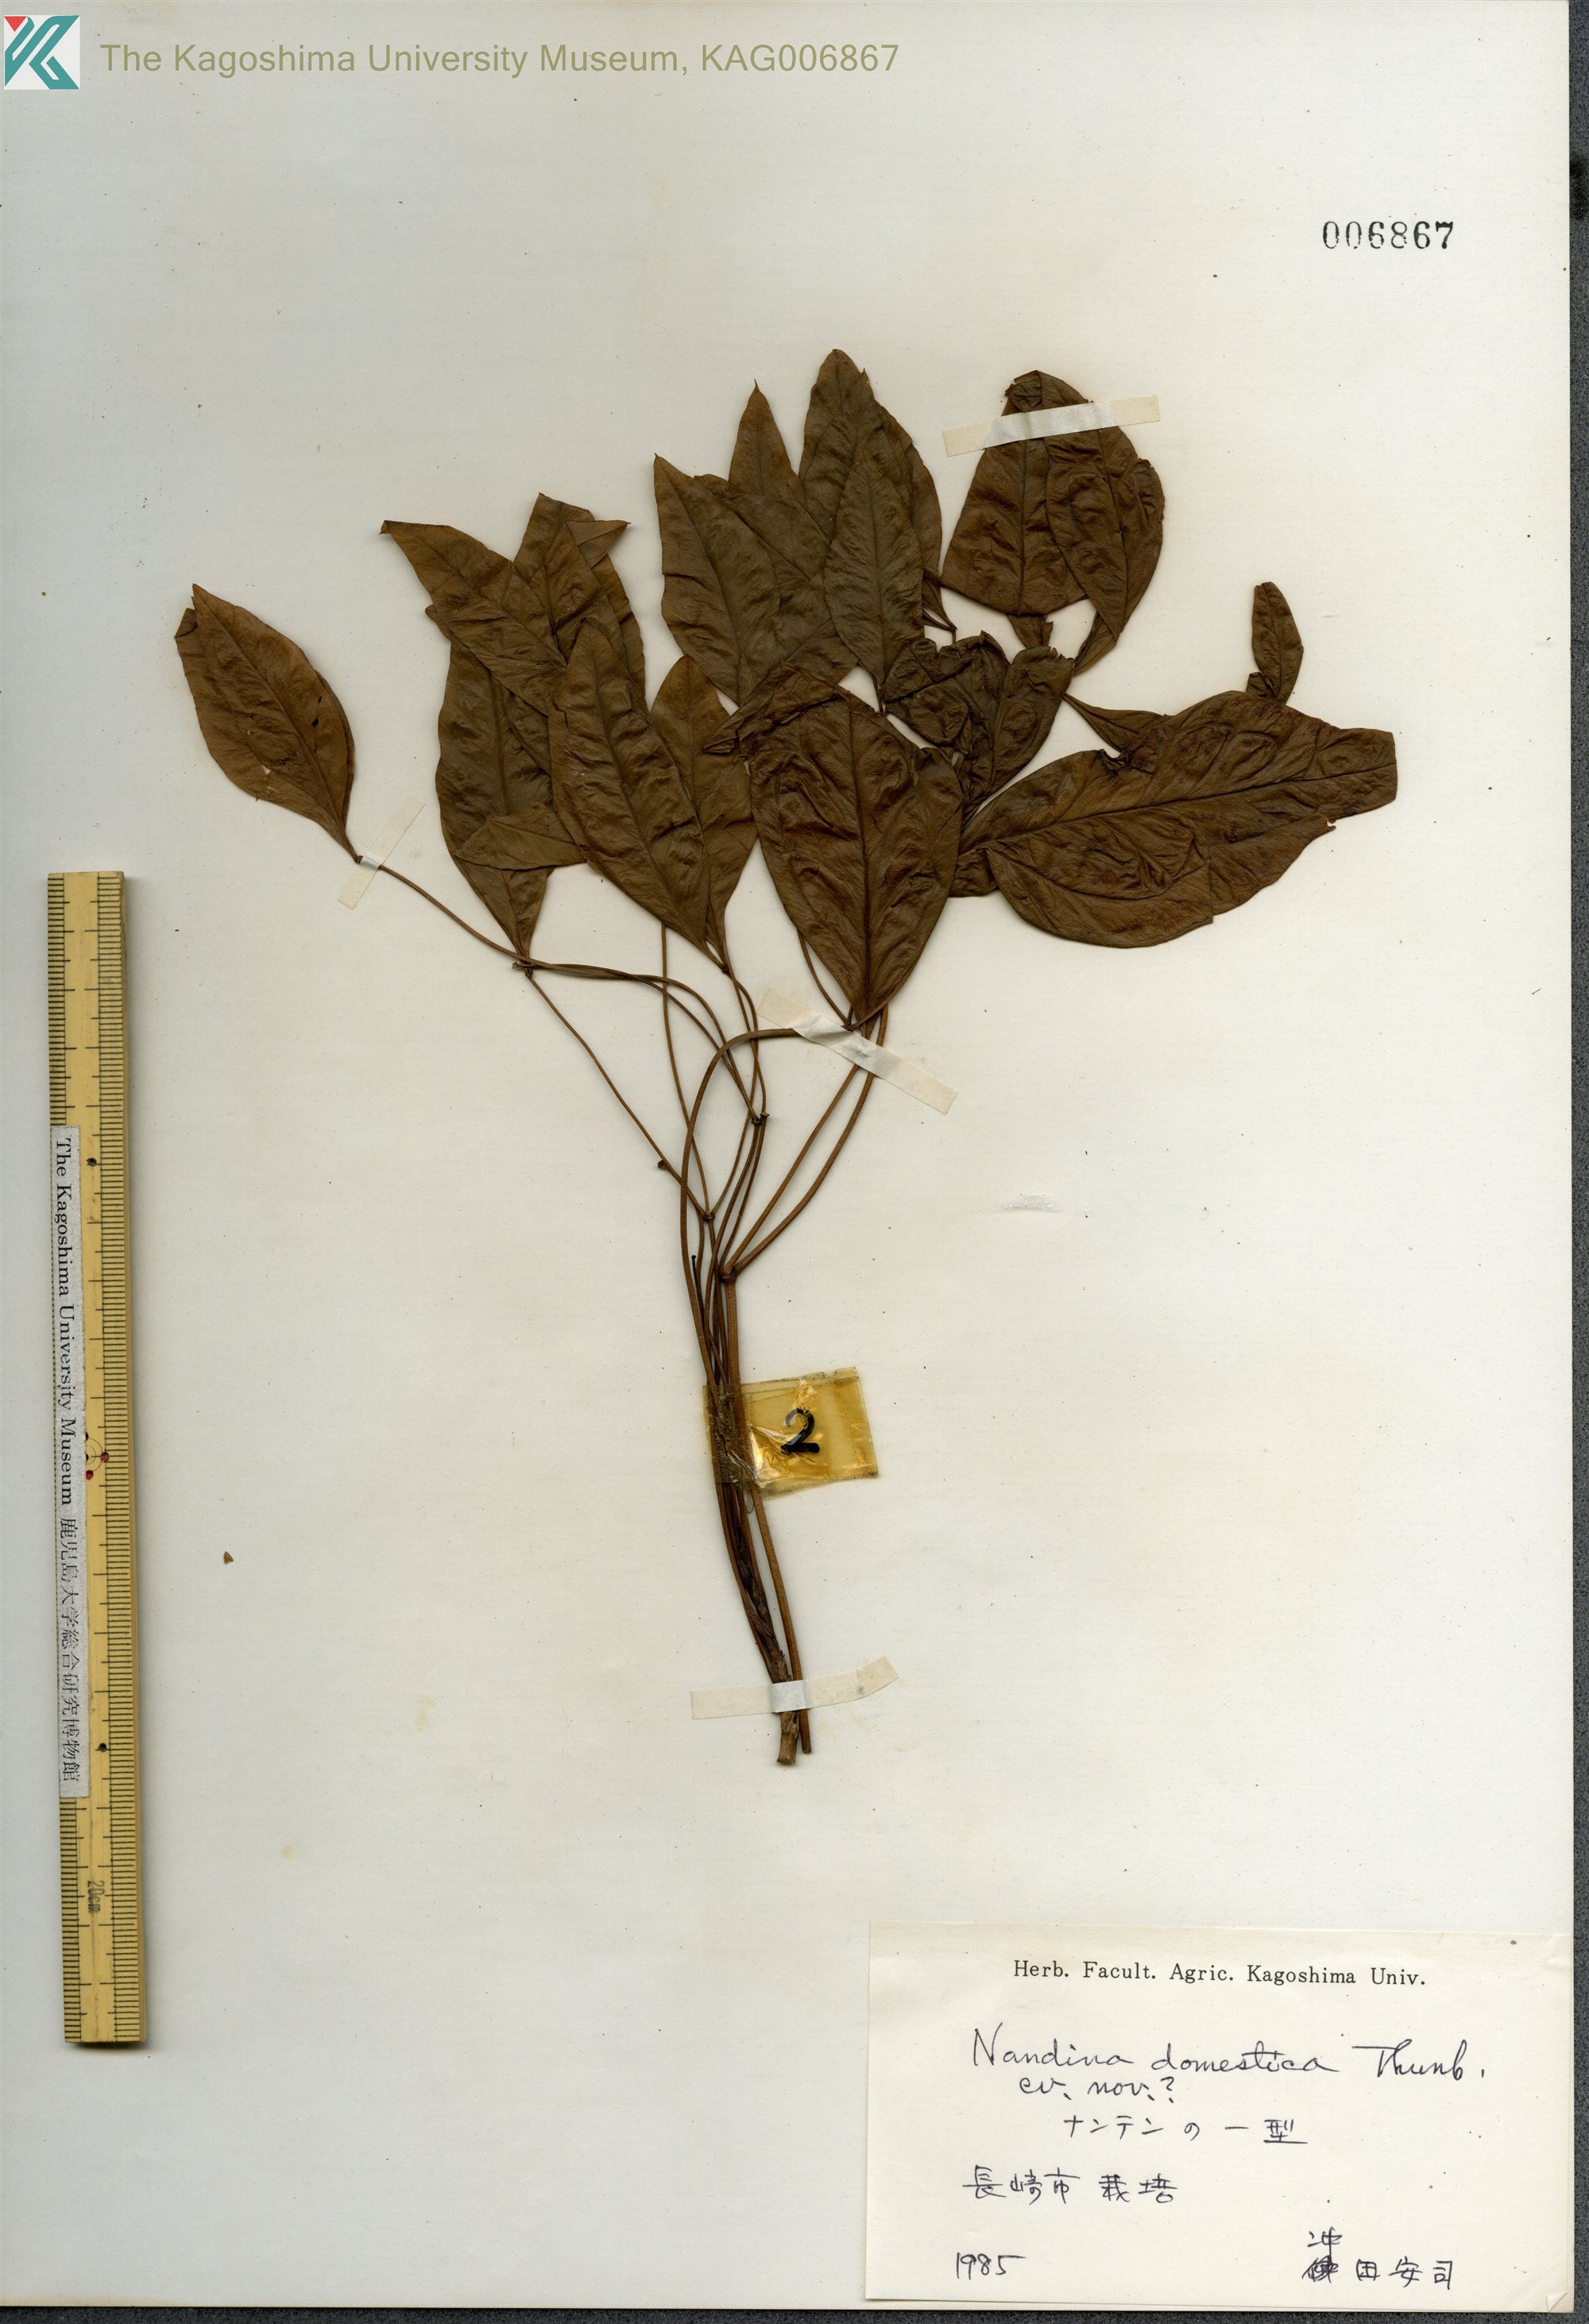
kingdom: Plantae
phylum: Tracheophyta
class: Magnoliopsida
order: Ranunculales
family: Berberidaceae
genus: Nandina
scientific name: Nandina domestica
